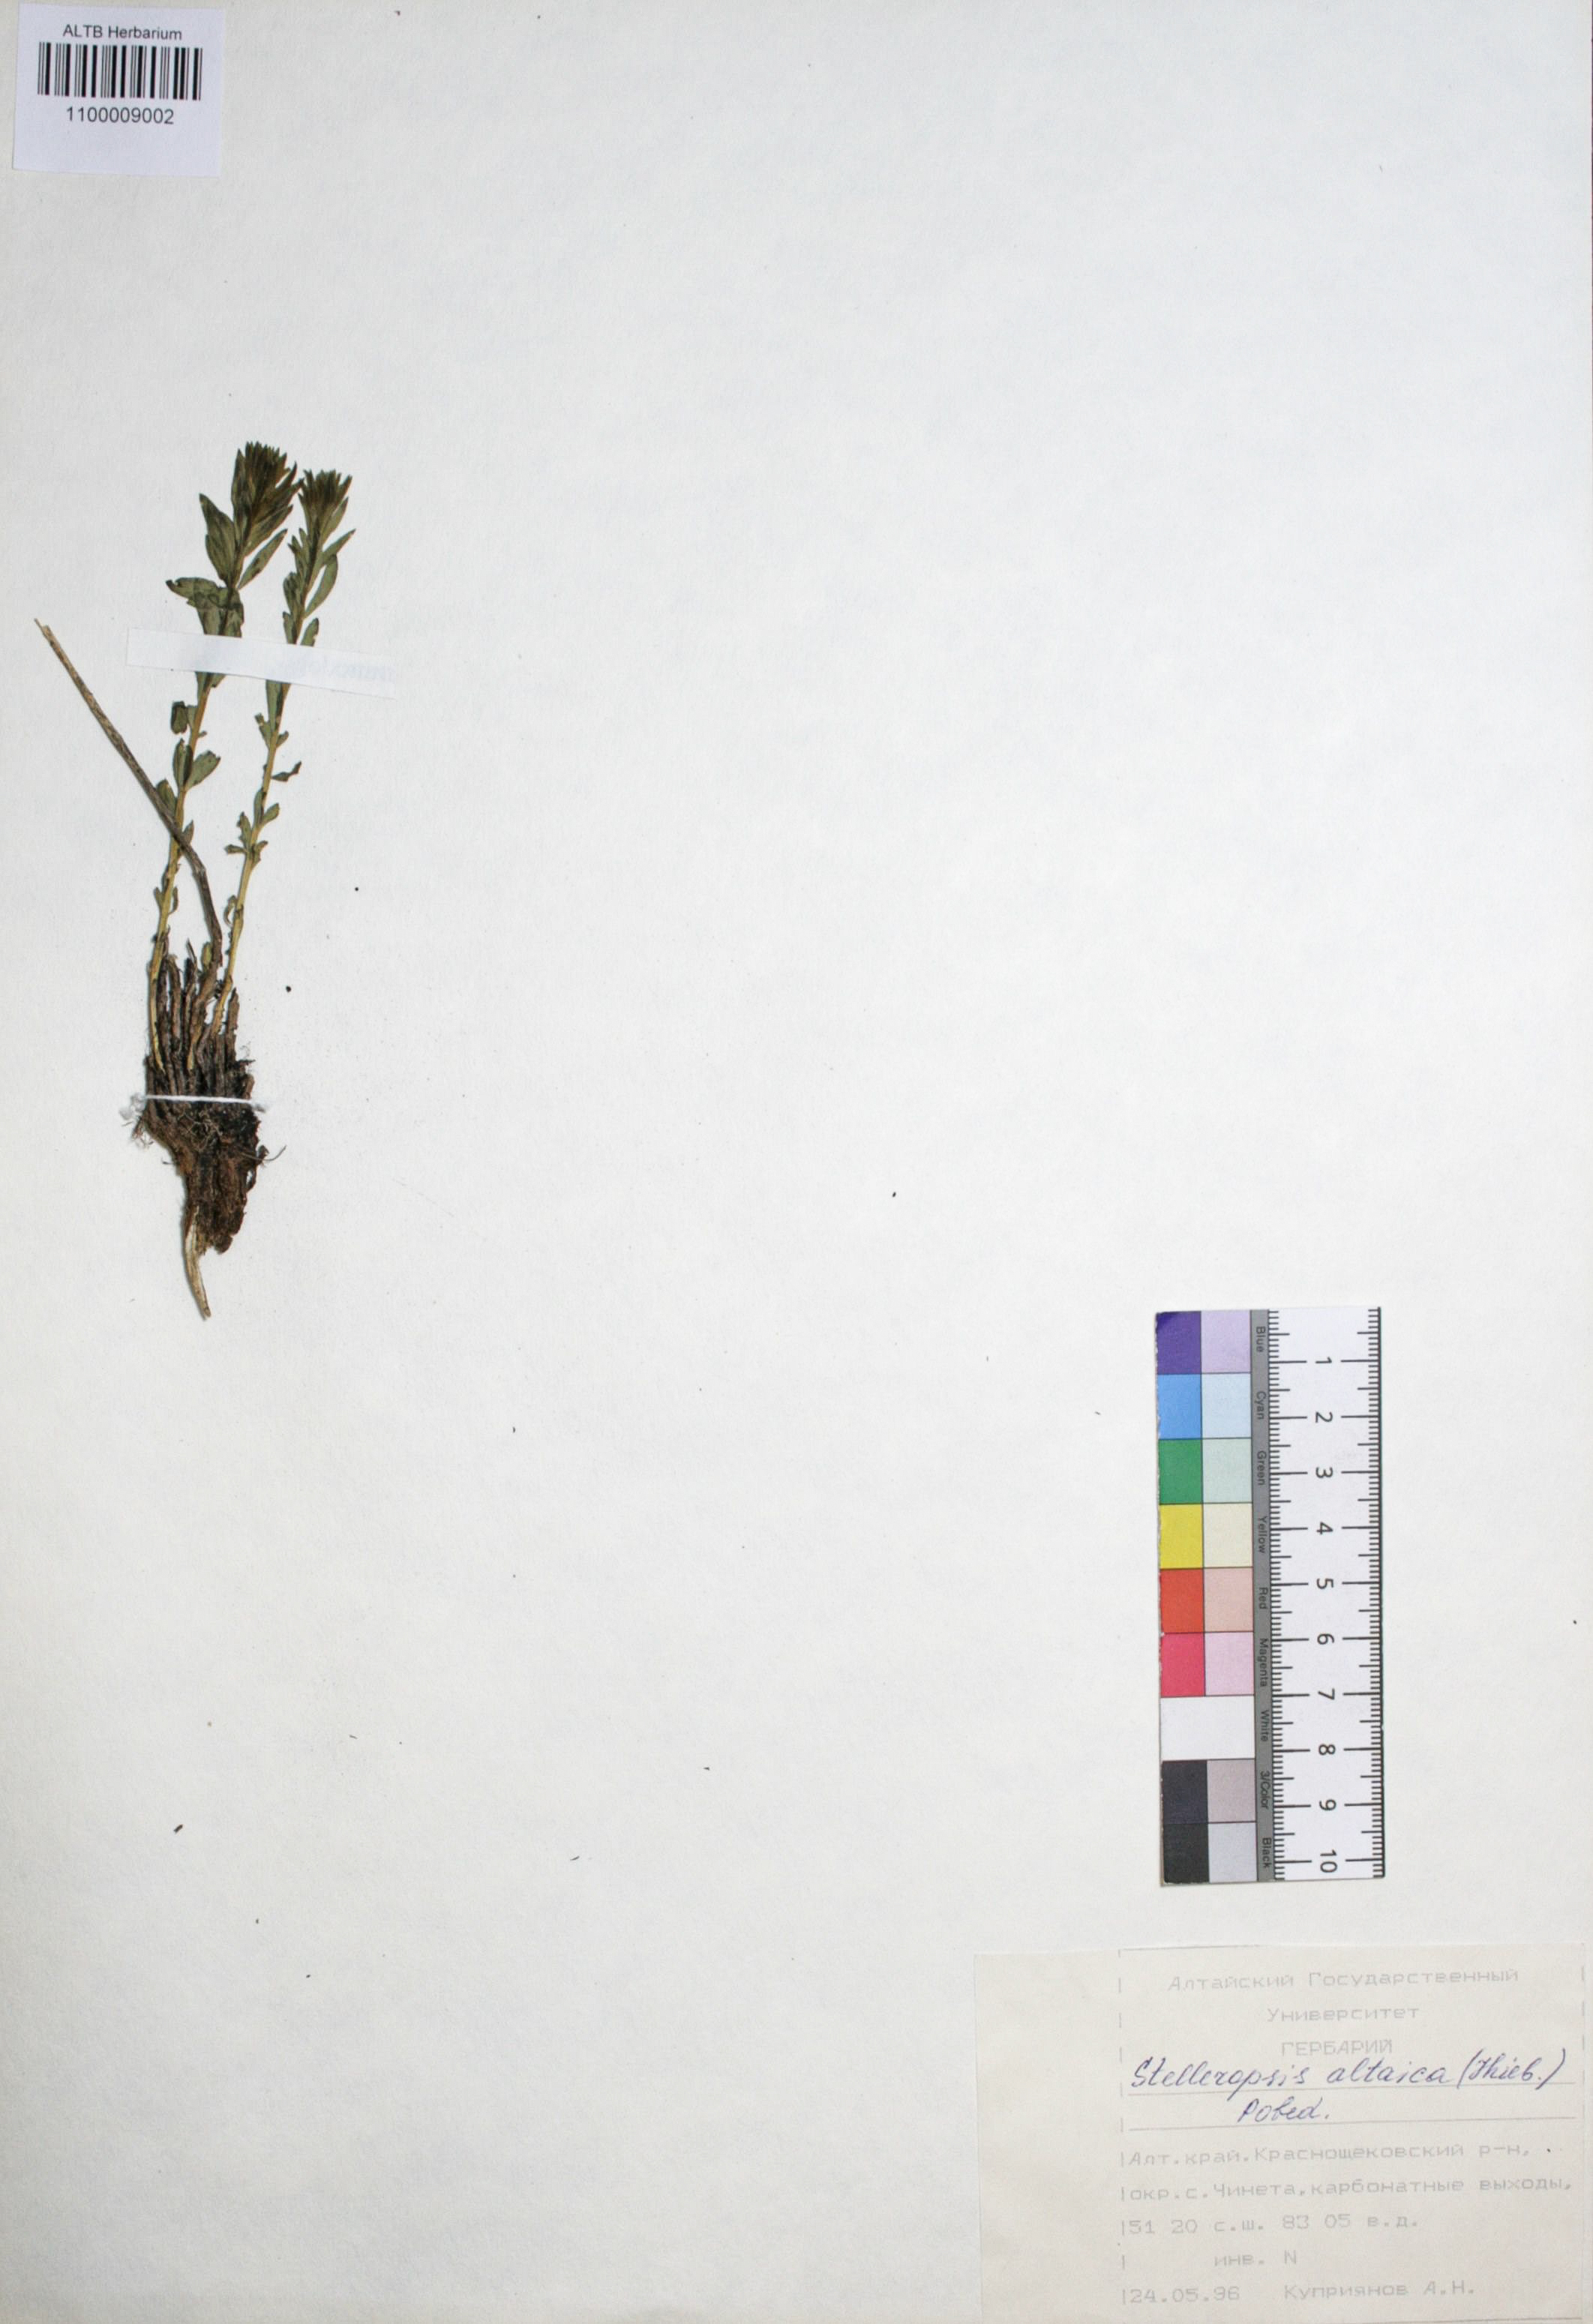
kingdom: Plantae
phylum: Tracheophyta
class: Magnoliopsida
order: Malvales
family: Thymelaeaceae
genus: Diarthron
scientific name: Diarthron altaicum
